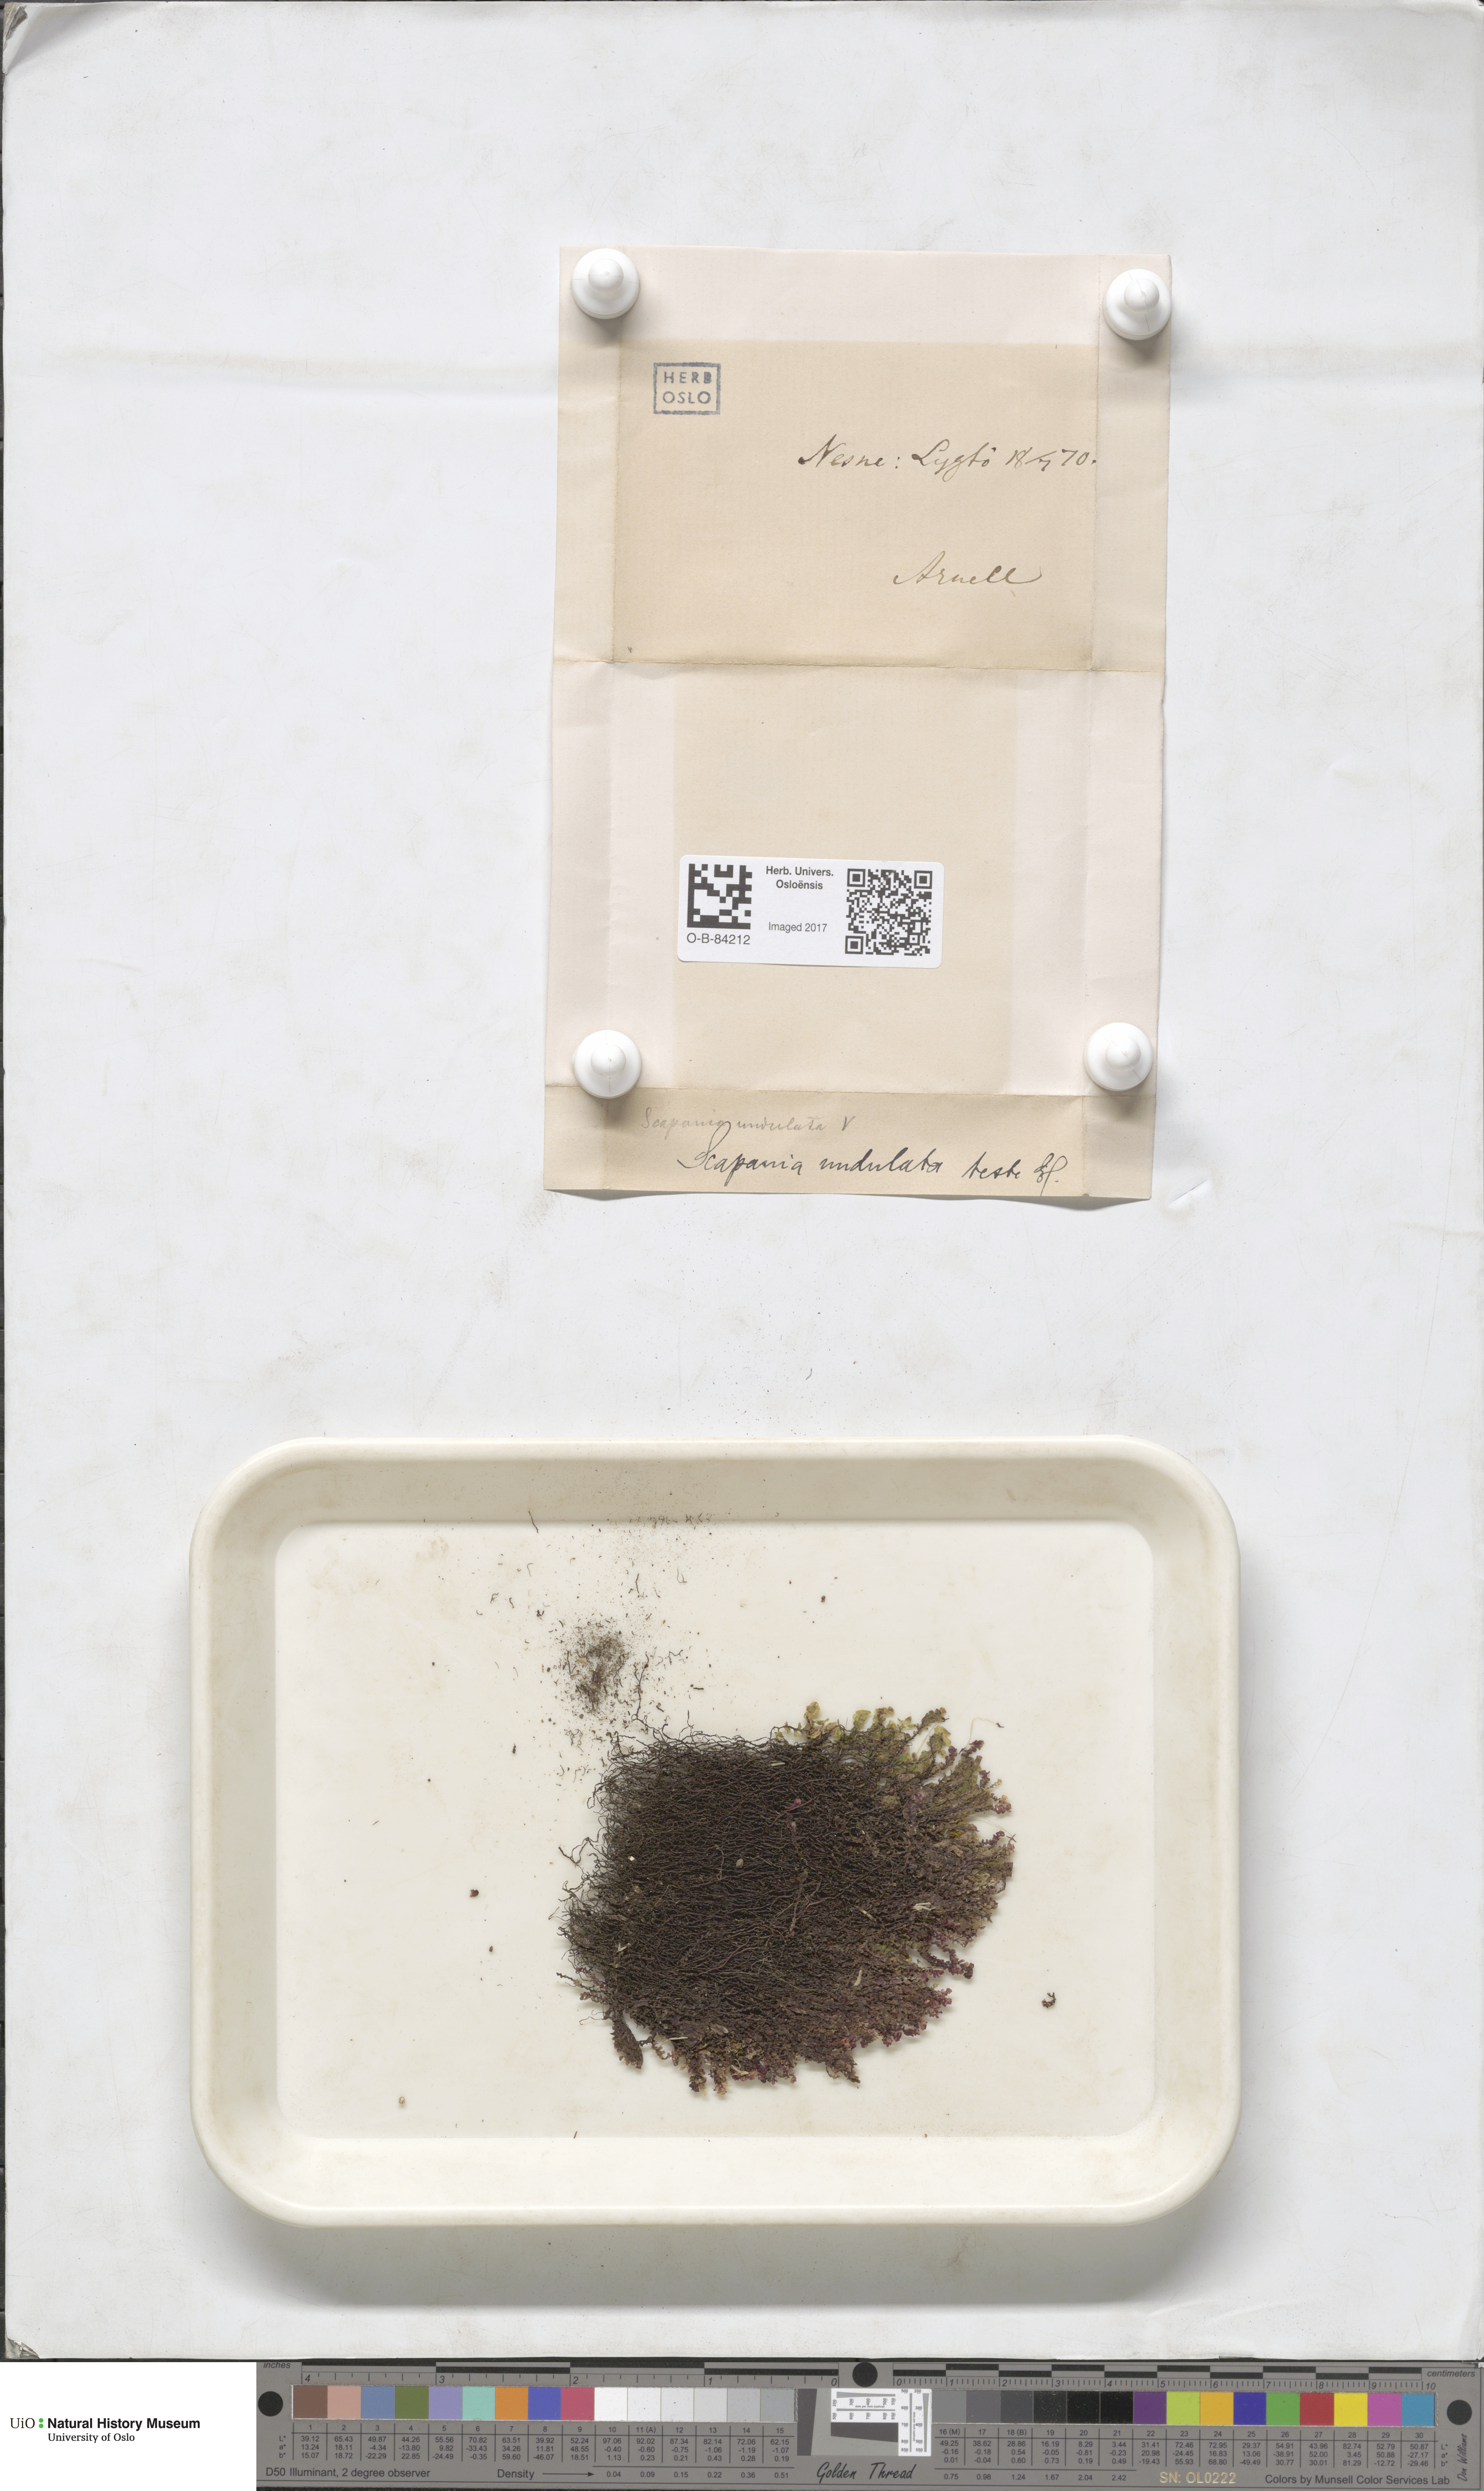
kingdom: Plantae
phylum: Marchantiophyta
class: Jungermanniopsida
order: Jungermanniales
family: Scapaniaceae
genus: Scapania
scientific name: Scapania undulata
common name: Water earwort
